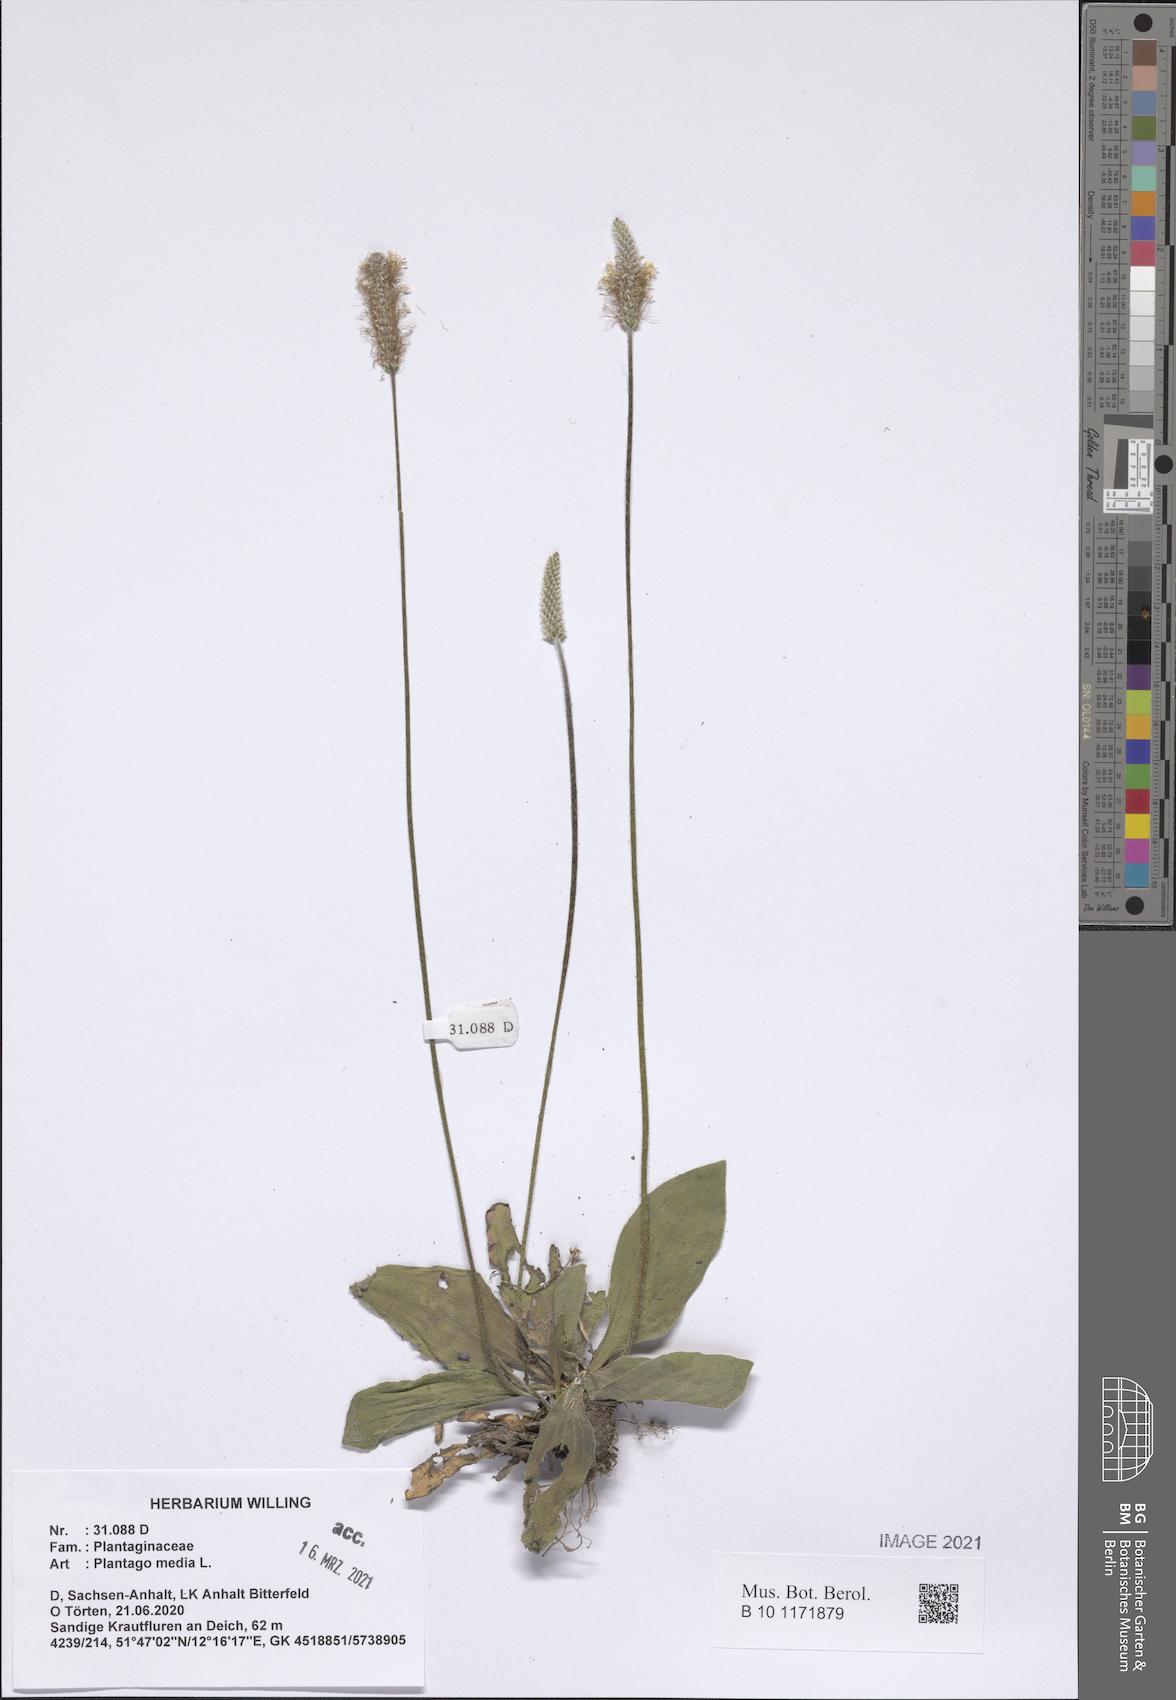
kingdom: Plantae
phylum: Tracheophyta
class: Magnoliopsida
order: Lamiales
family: Plantaginaceae
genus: Plantago
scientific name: Plantago media
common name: Hoary plantain
